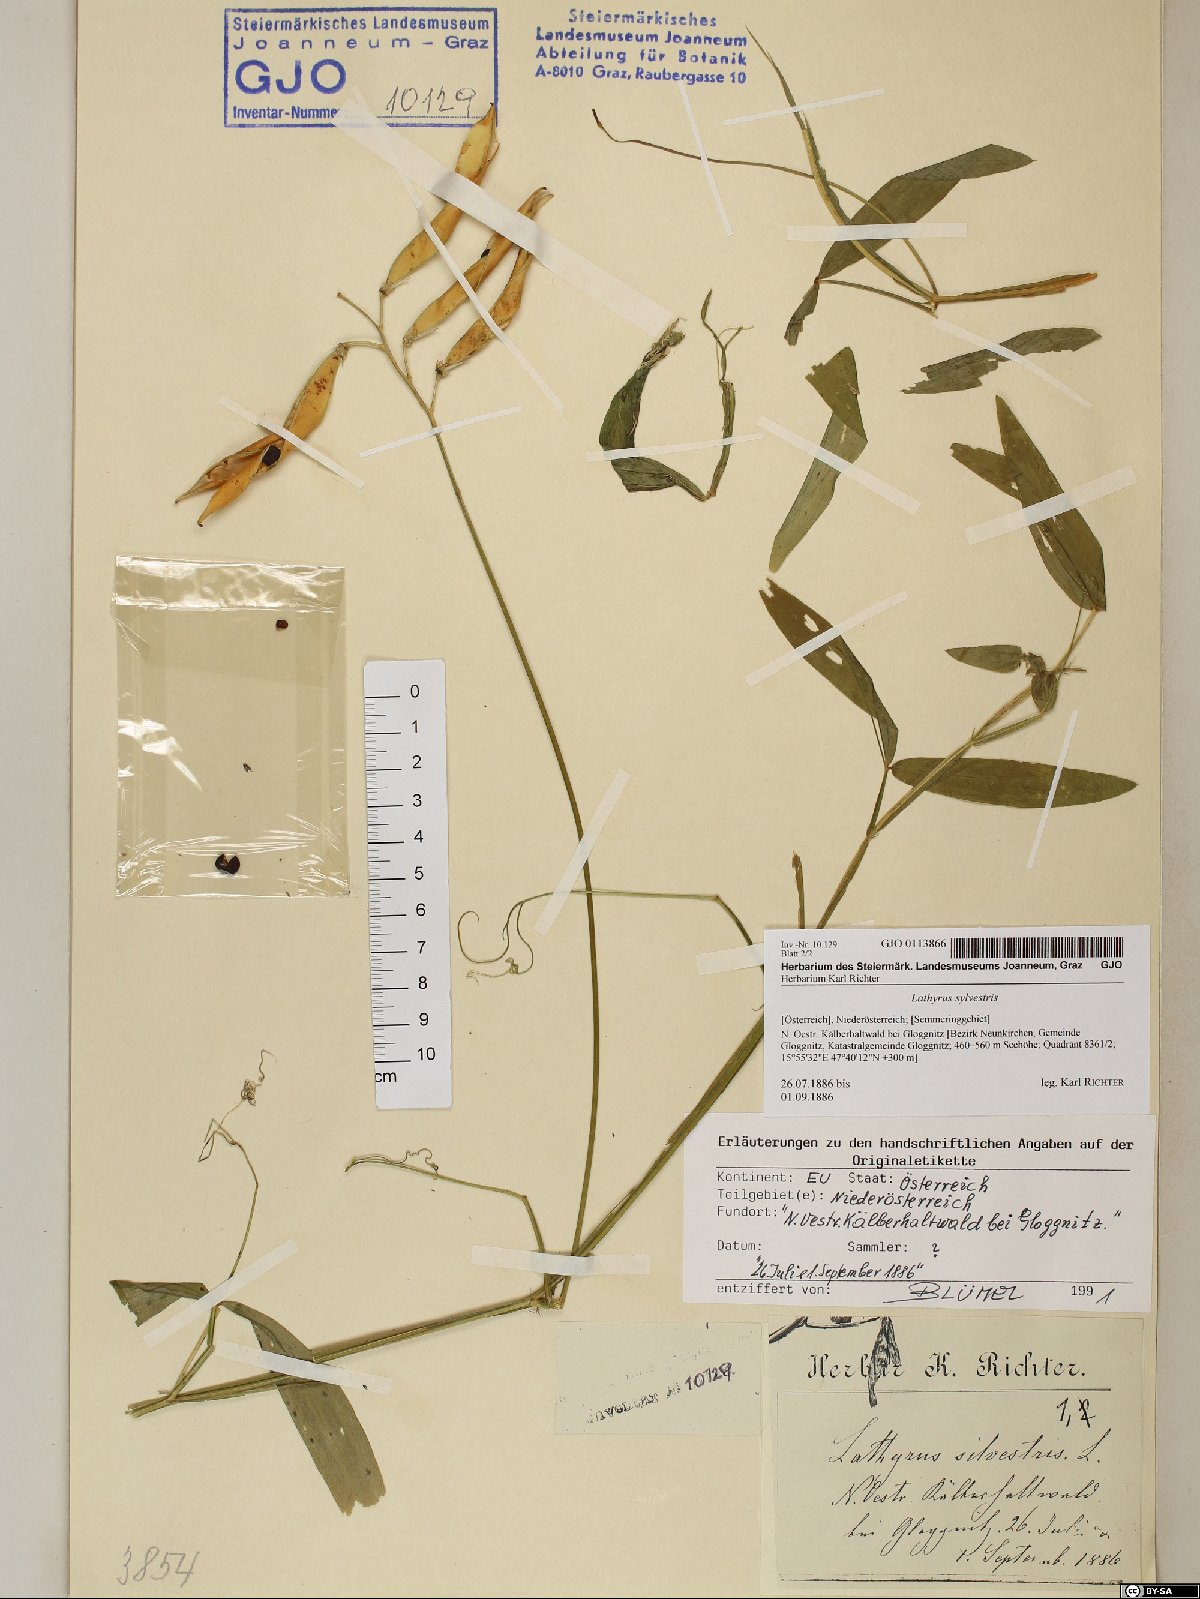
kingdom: Plantae
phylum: Tracheophyta
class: Magnoliopsida
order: Fabales
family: Fabaceae
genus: Lathyrus
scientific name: Lathyrus sylvestris
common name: Flat pea
